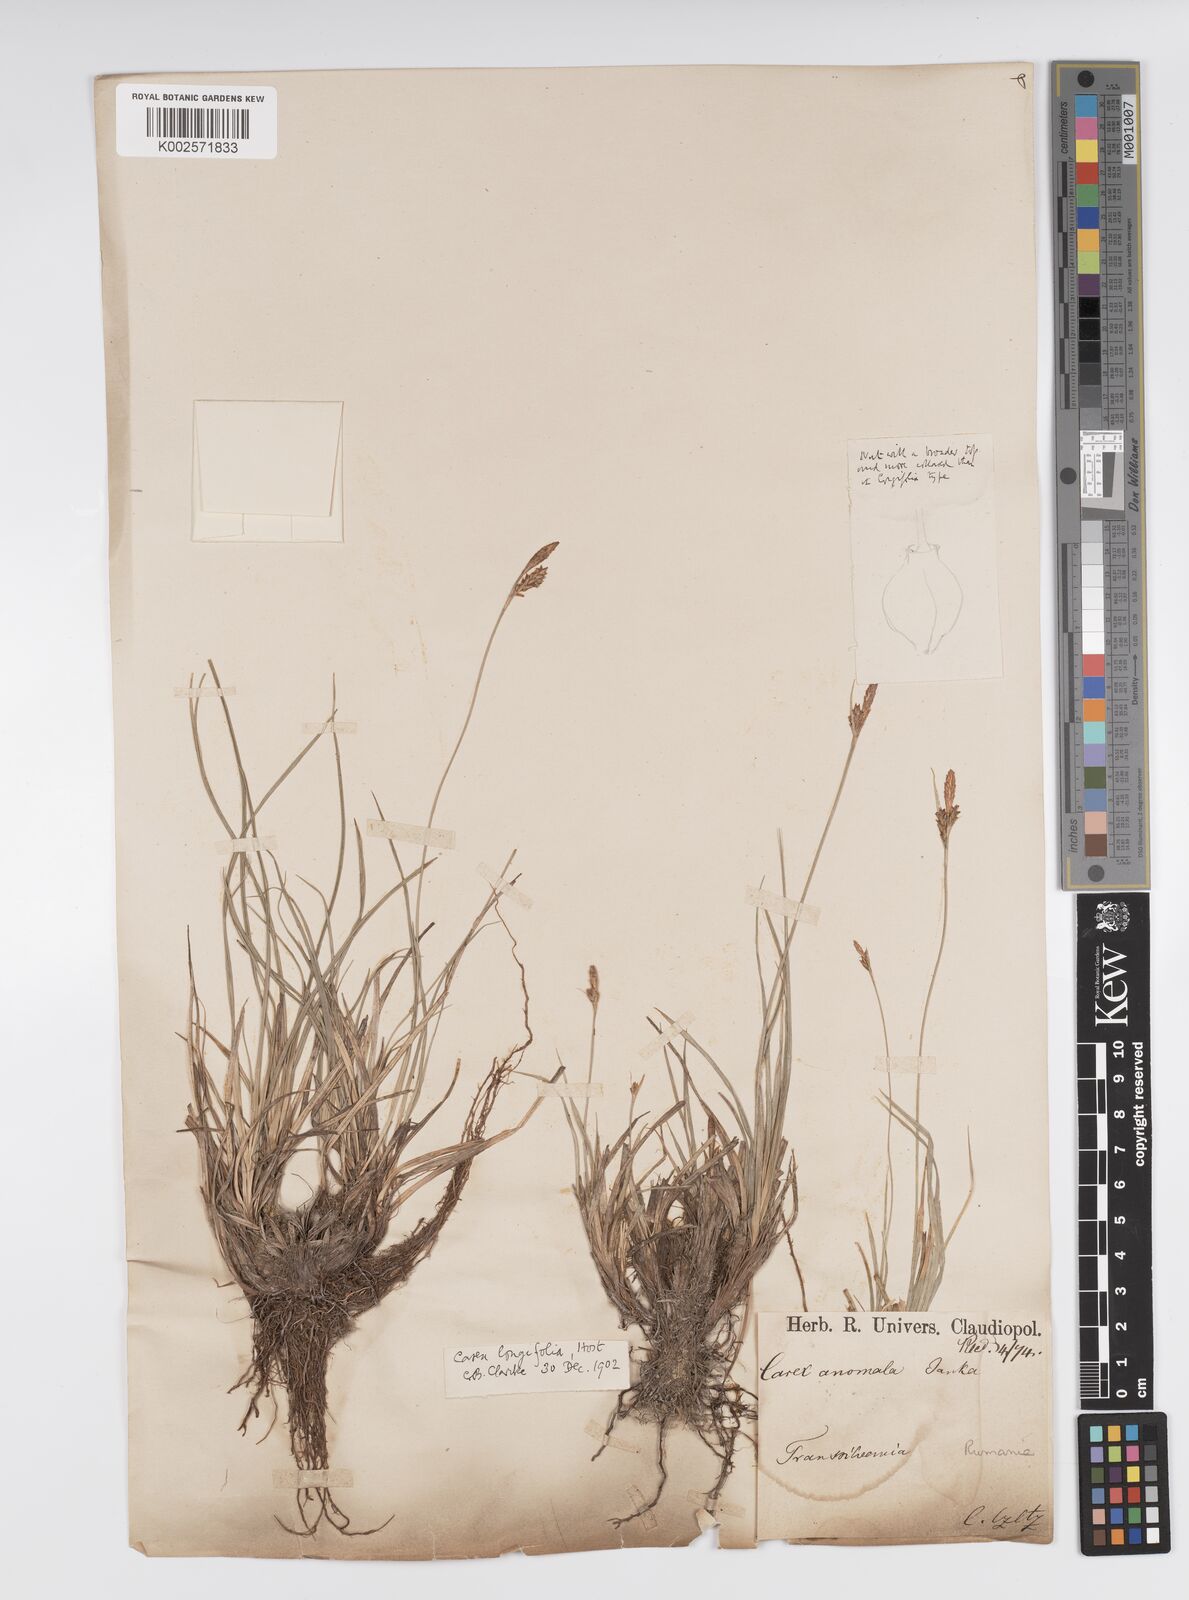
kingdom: Plantae
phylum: Tracheophyta
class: Liliopsida
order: Poales
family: Cyperaceae
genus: Carex
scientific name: Carex umbrosa
